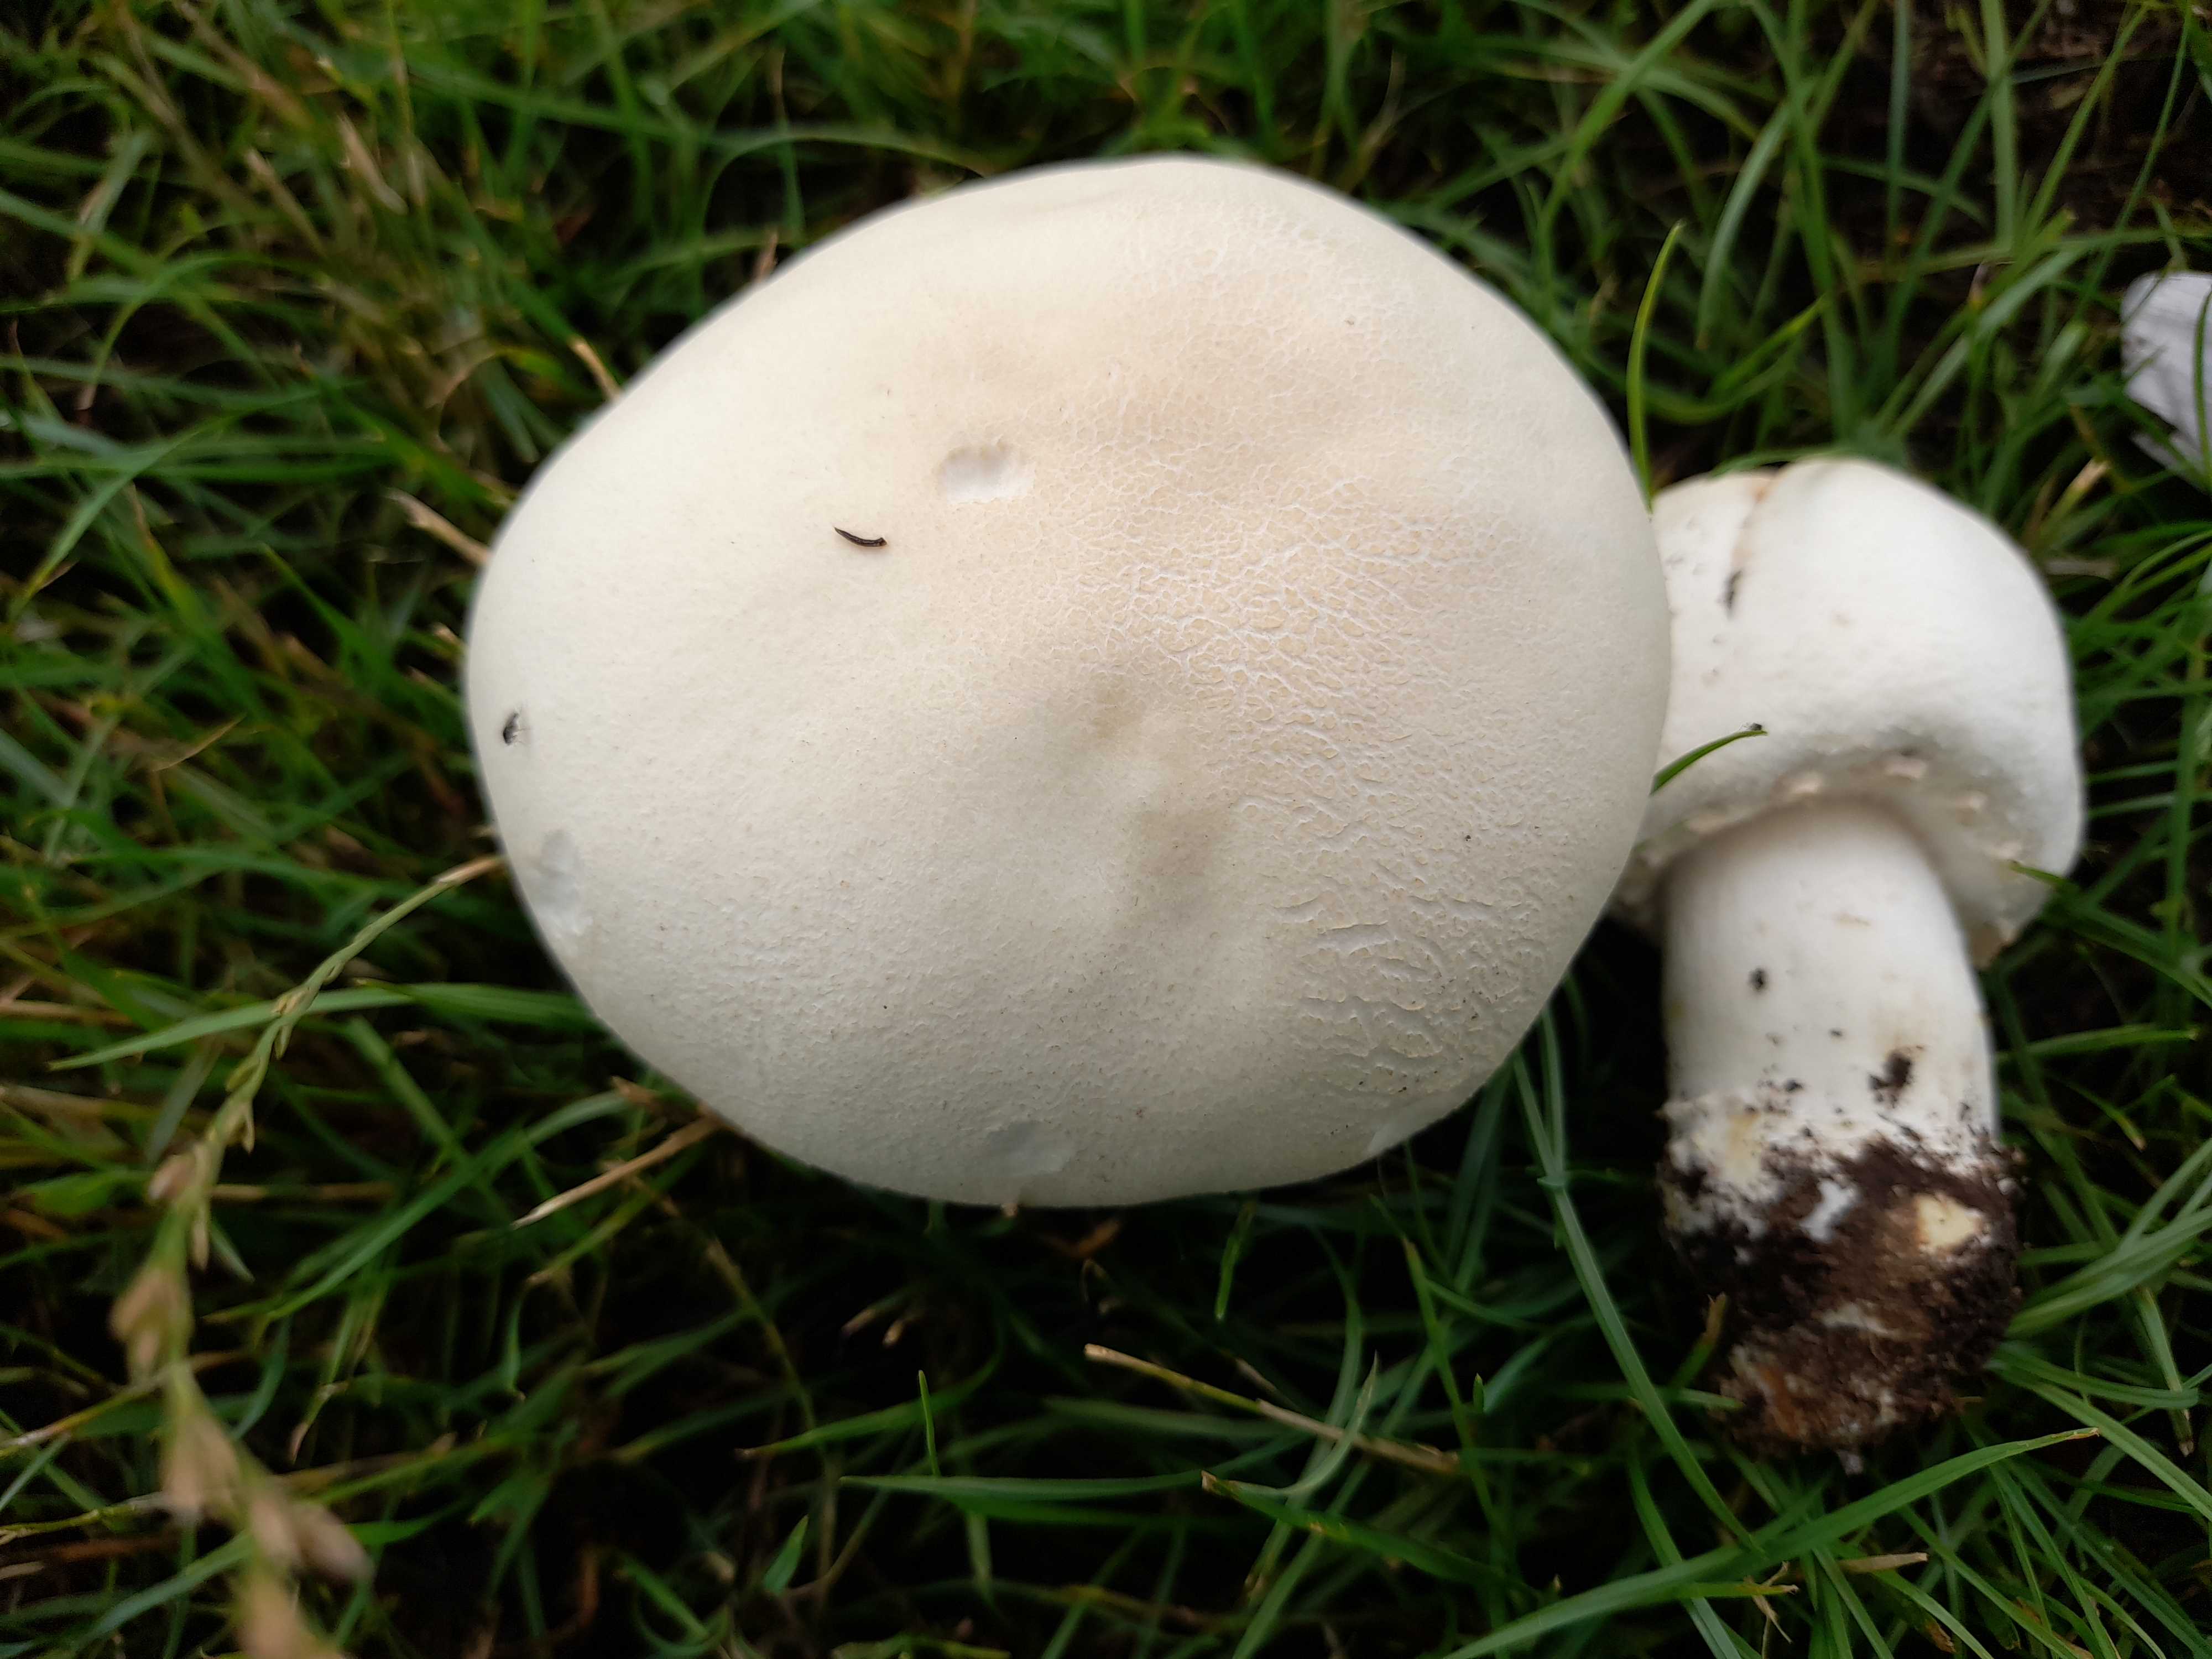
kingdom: Fungi
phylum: Basidiomycota
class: Agaricomycetes
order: Agaricales
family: Agaricaceae
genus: Agaricus
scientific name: Agaricus arvensis
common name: ager-champignon
